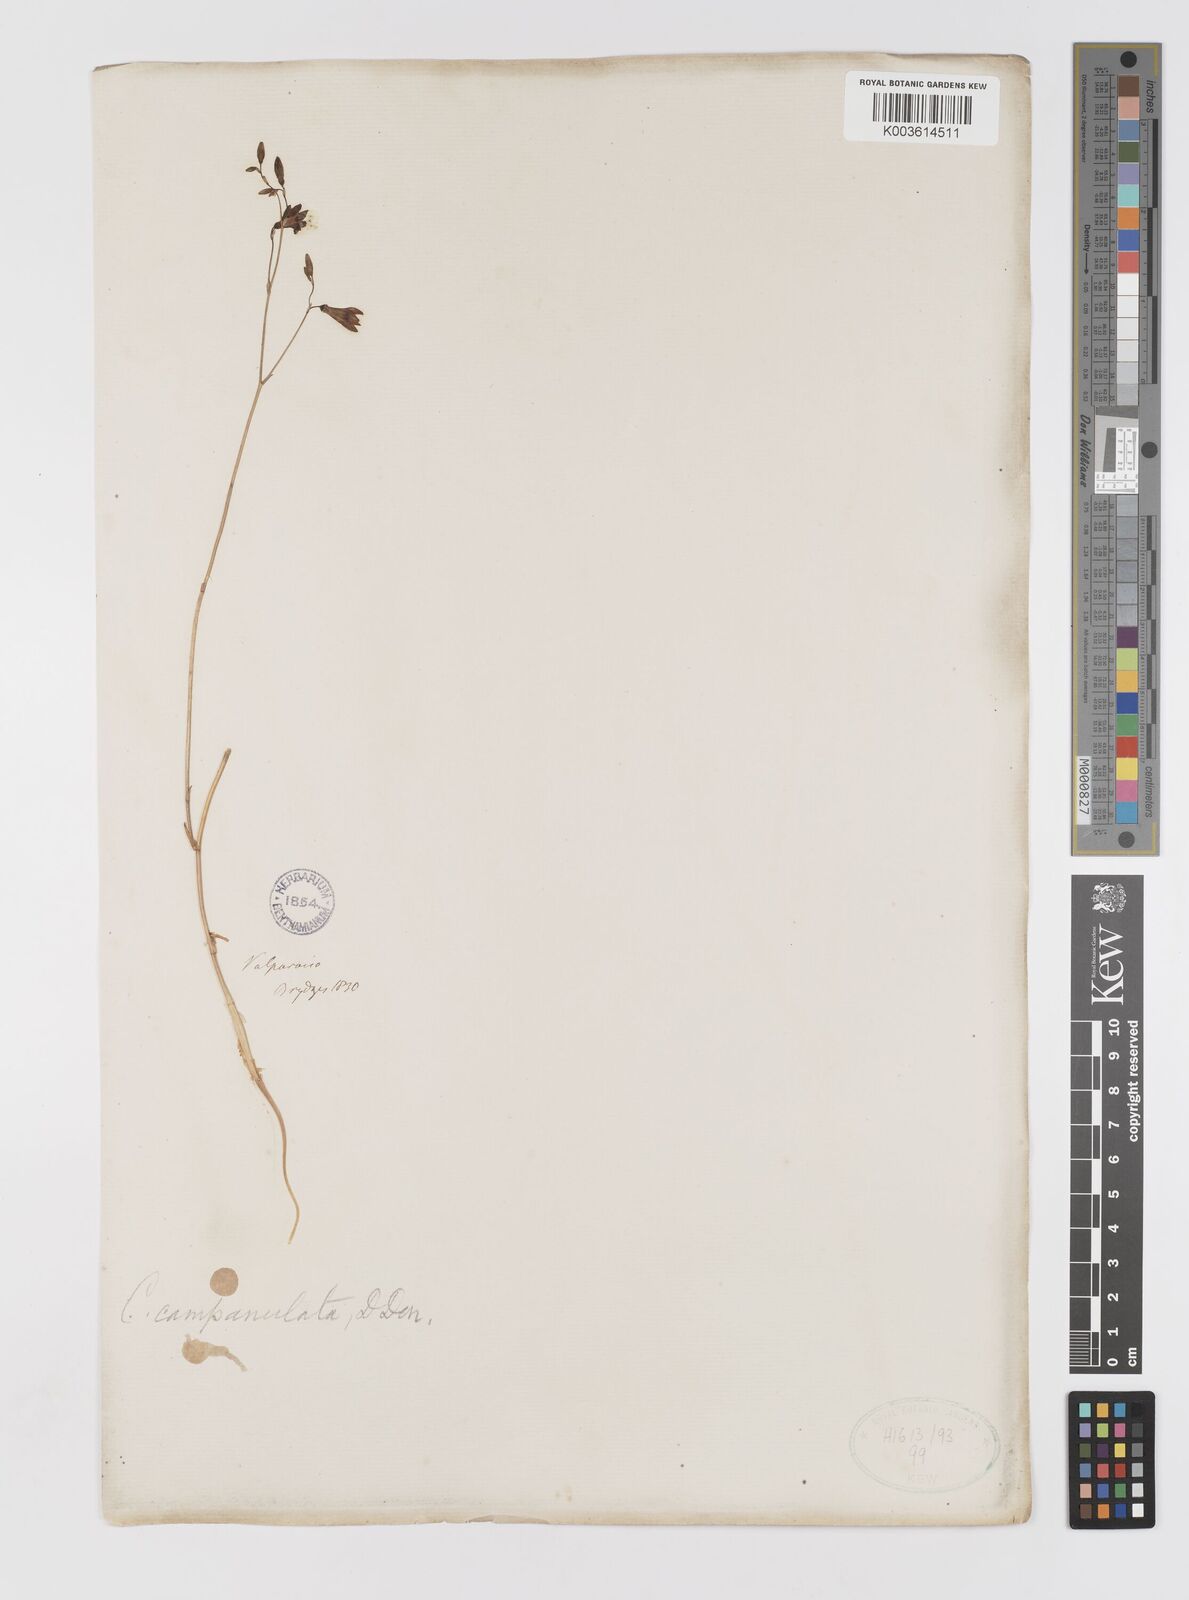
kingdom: Plantae
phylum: Tracheophyta
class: Liliopsida
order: Asparagales
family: Tecophilaeaceae
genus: Conanthera
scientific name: Conanthera campanulata
